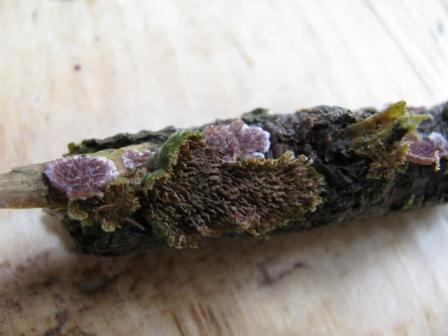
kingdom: Fungi
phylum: Basidiomycota
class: Agaricomycetes
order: Hymenochaetales
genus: Trichaptum
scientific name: Trichaptum fuscoviolaceum
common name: tandet violporesvamp
